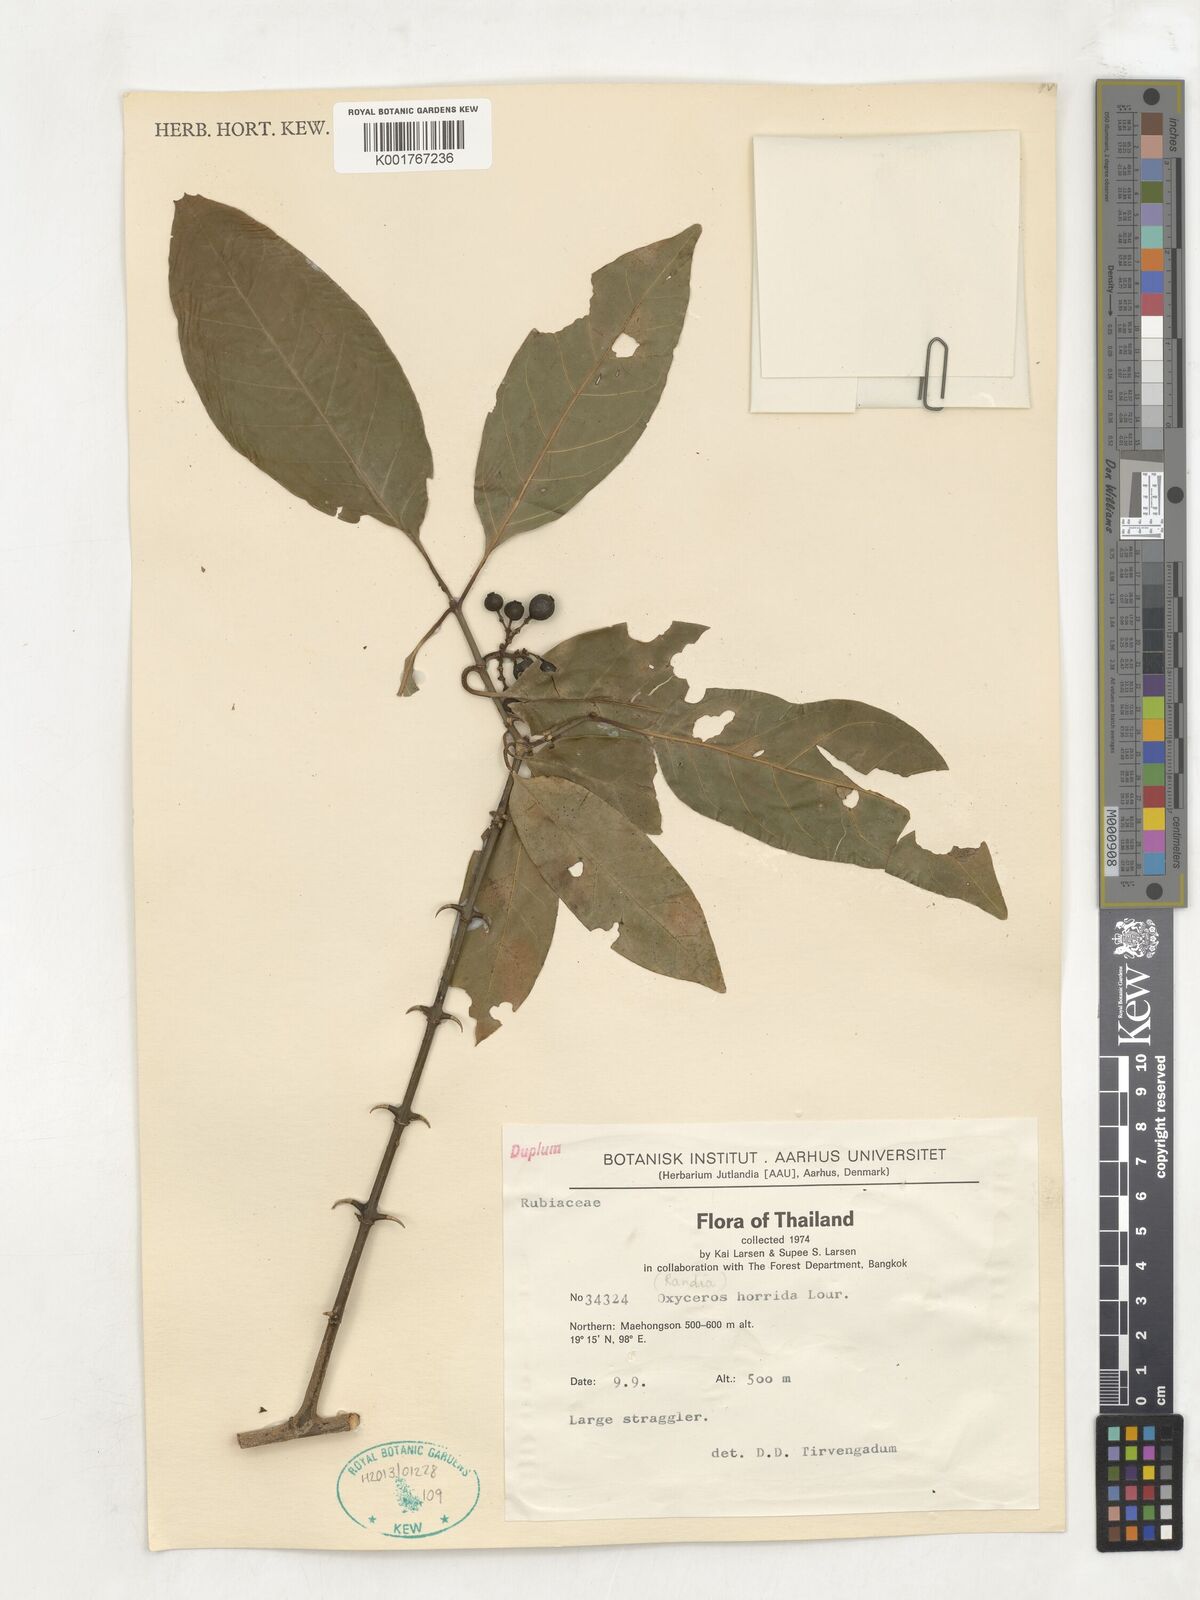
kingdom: Plantae
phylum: Tracheophyta
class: Magnoliopsida
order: Gentianales
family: Rubiaceae
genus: Oxyceros
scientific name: Oxyceros horridus
